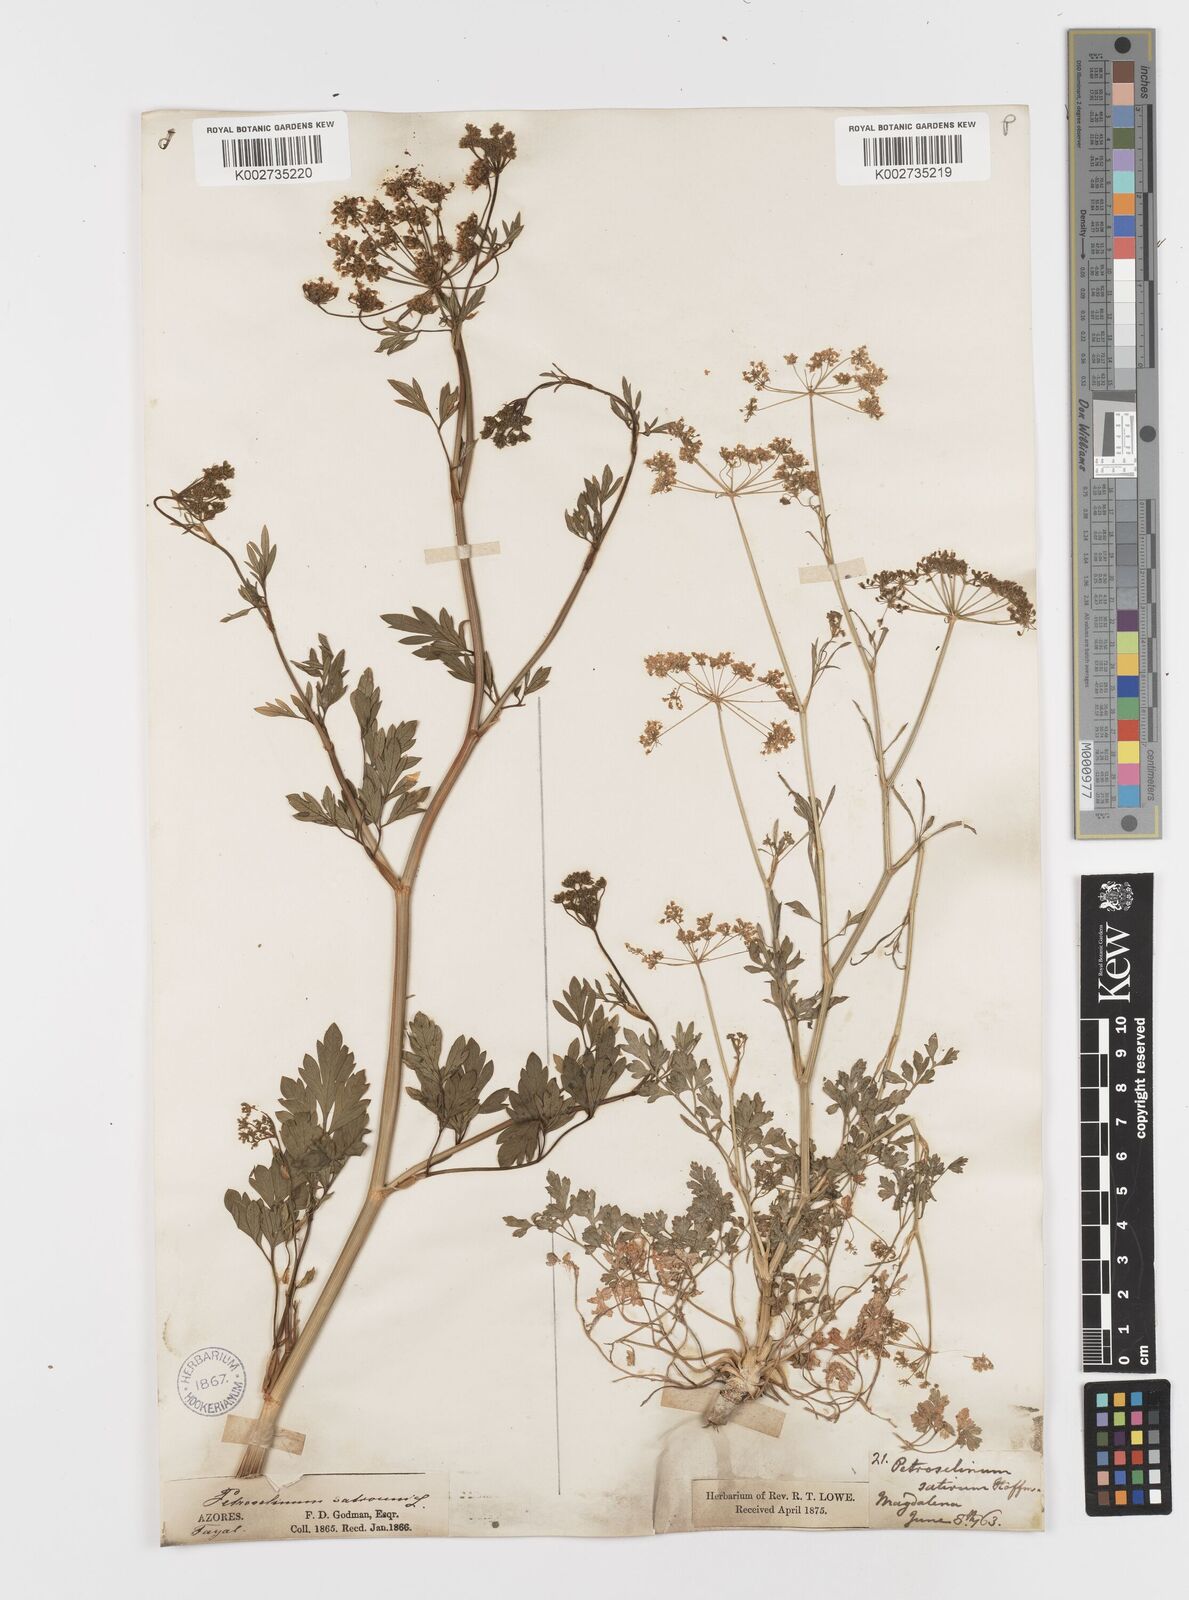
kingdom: Plantae
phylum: Tracheophyta
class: Magnoliopsida
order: Apiales
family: Apiaceae
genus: Petroselinum
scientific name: Petroselinum crispum
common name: Parsley
